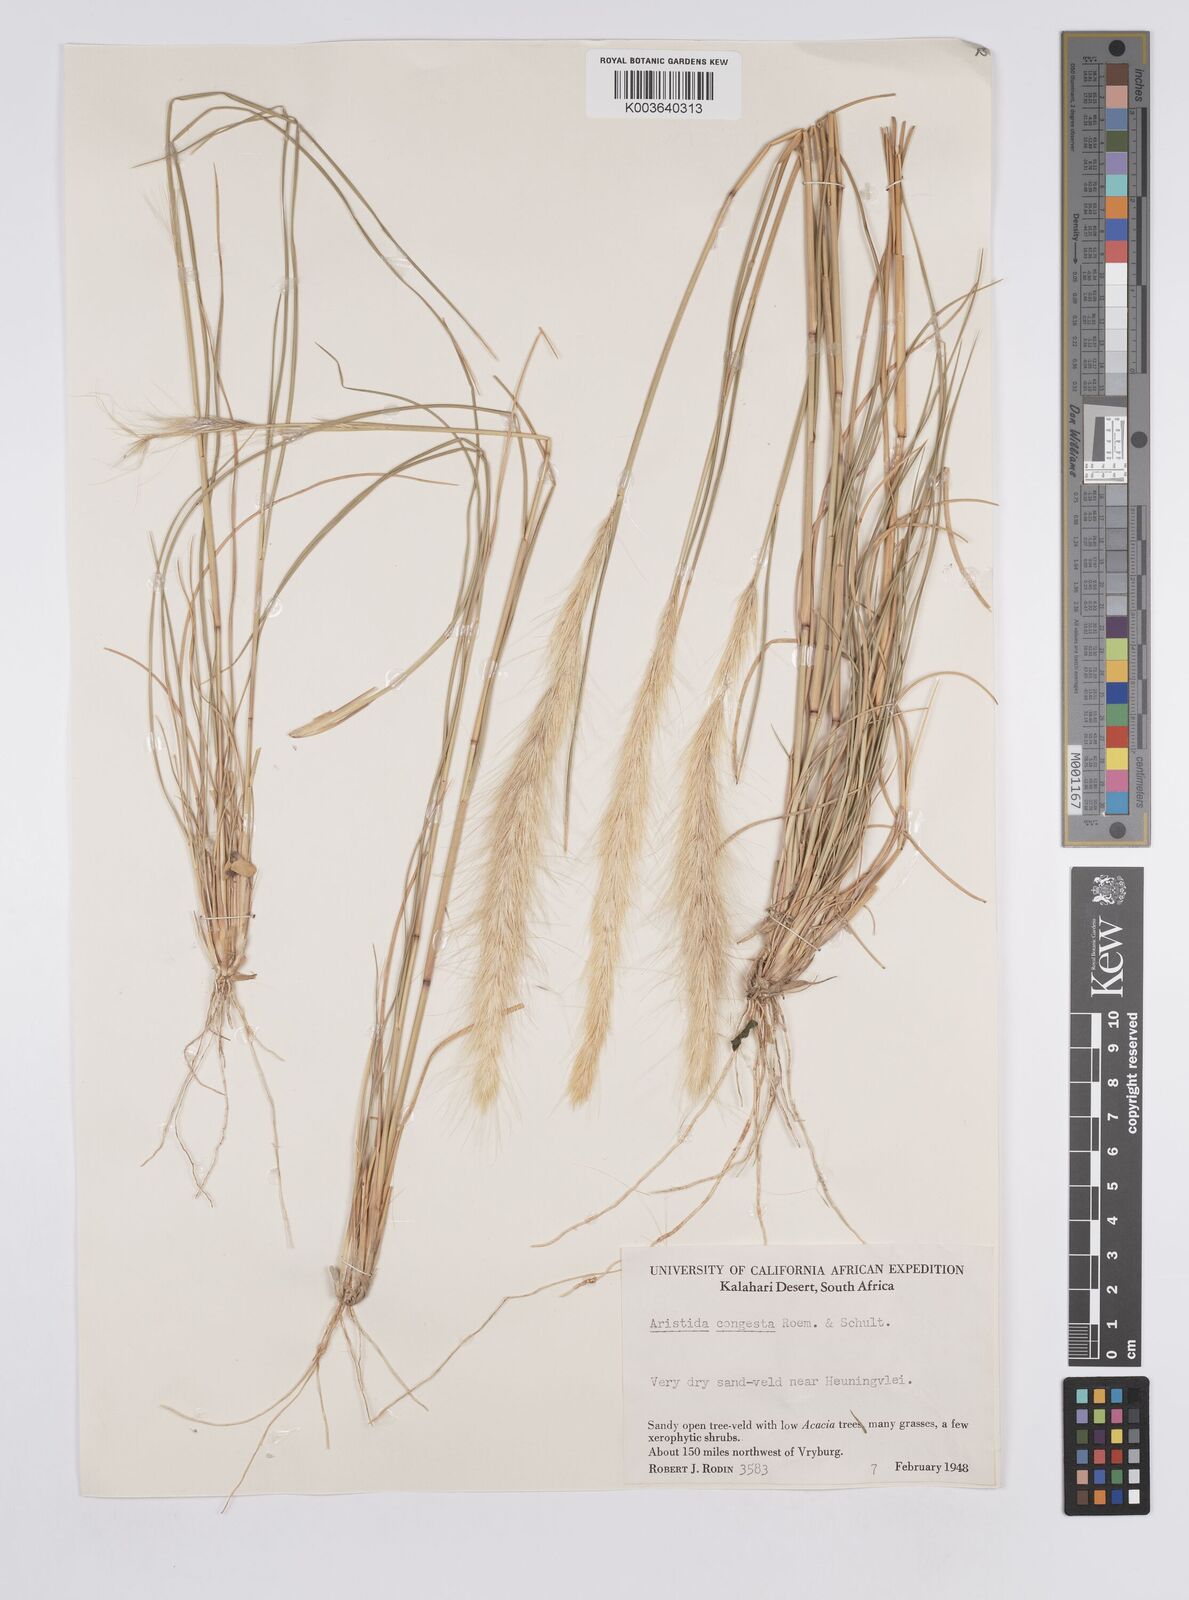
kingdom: Plantae
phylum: Tracheophyta
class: Liliopsida
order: Poales
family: Poaceae
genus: Aristida
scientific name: Aristida congesta
